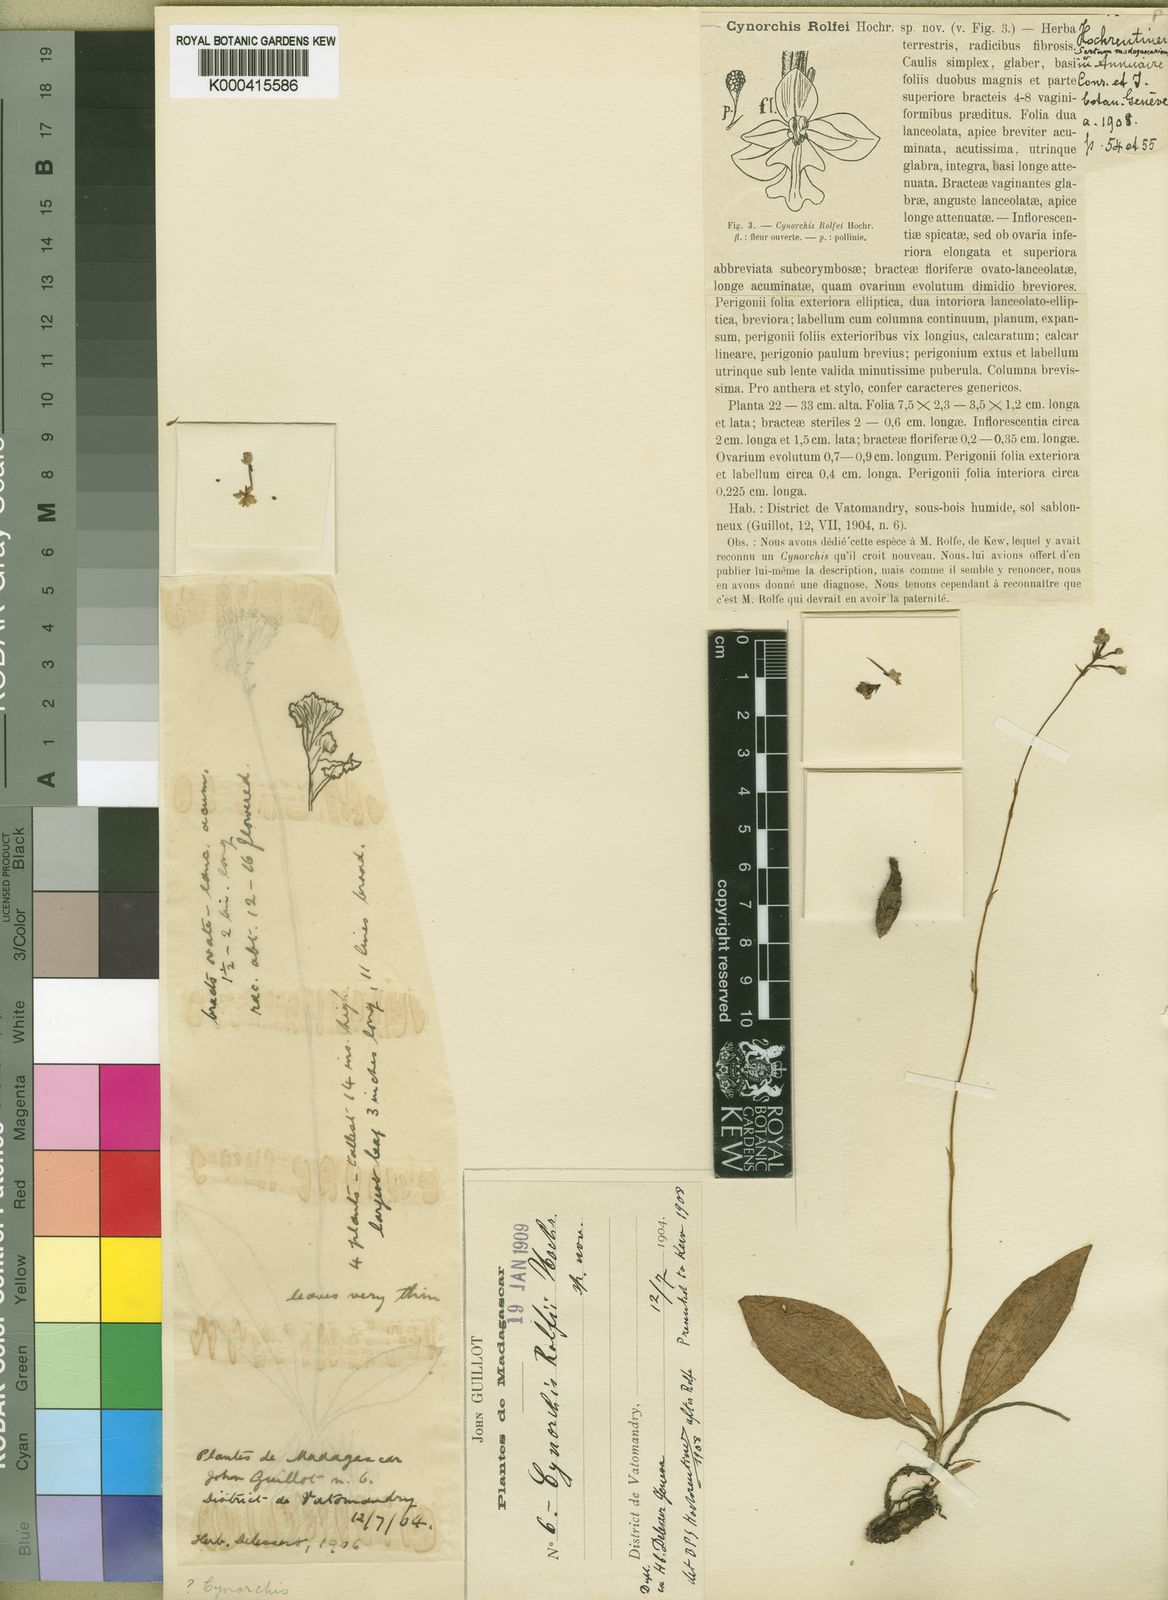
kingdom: Plantae
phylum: Tracheophyta
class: Liliopsida
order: Asparagales
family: Orchidaceae
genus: Cynorkis
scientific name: Cynorkis rolfei
